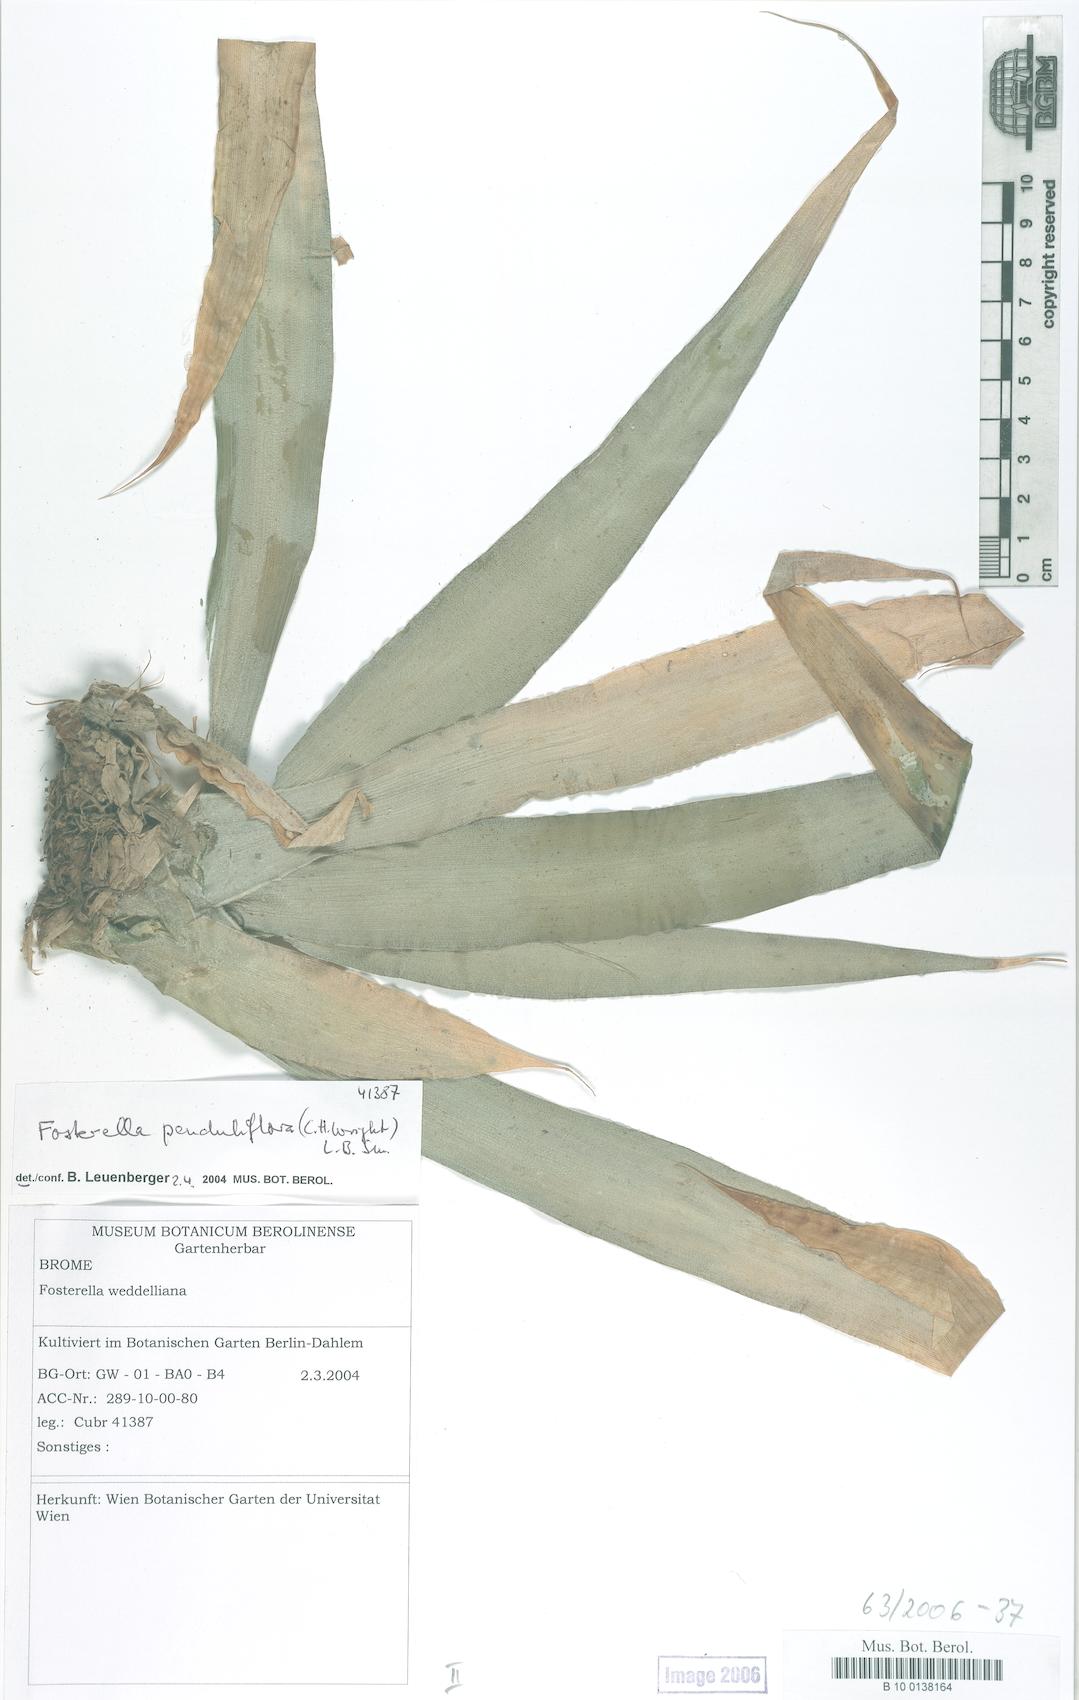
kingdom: Plantae
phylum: Tracheophyta
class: Liliopsida
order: Poales
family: Bromeliaceae
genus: Fosterella
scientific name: Fosterella penduliflora
